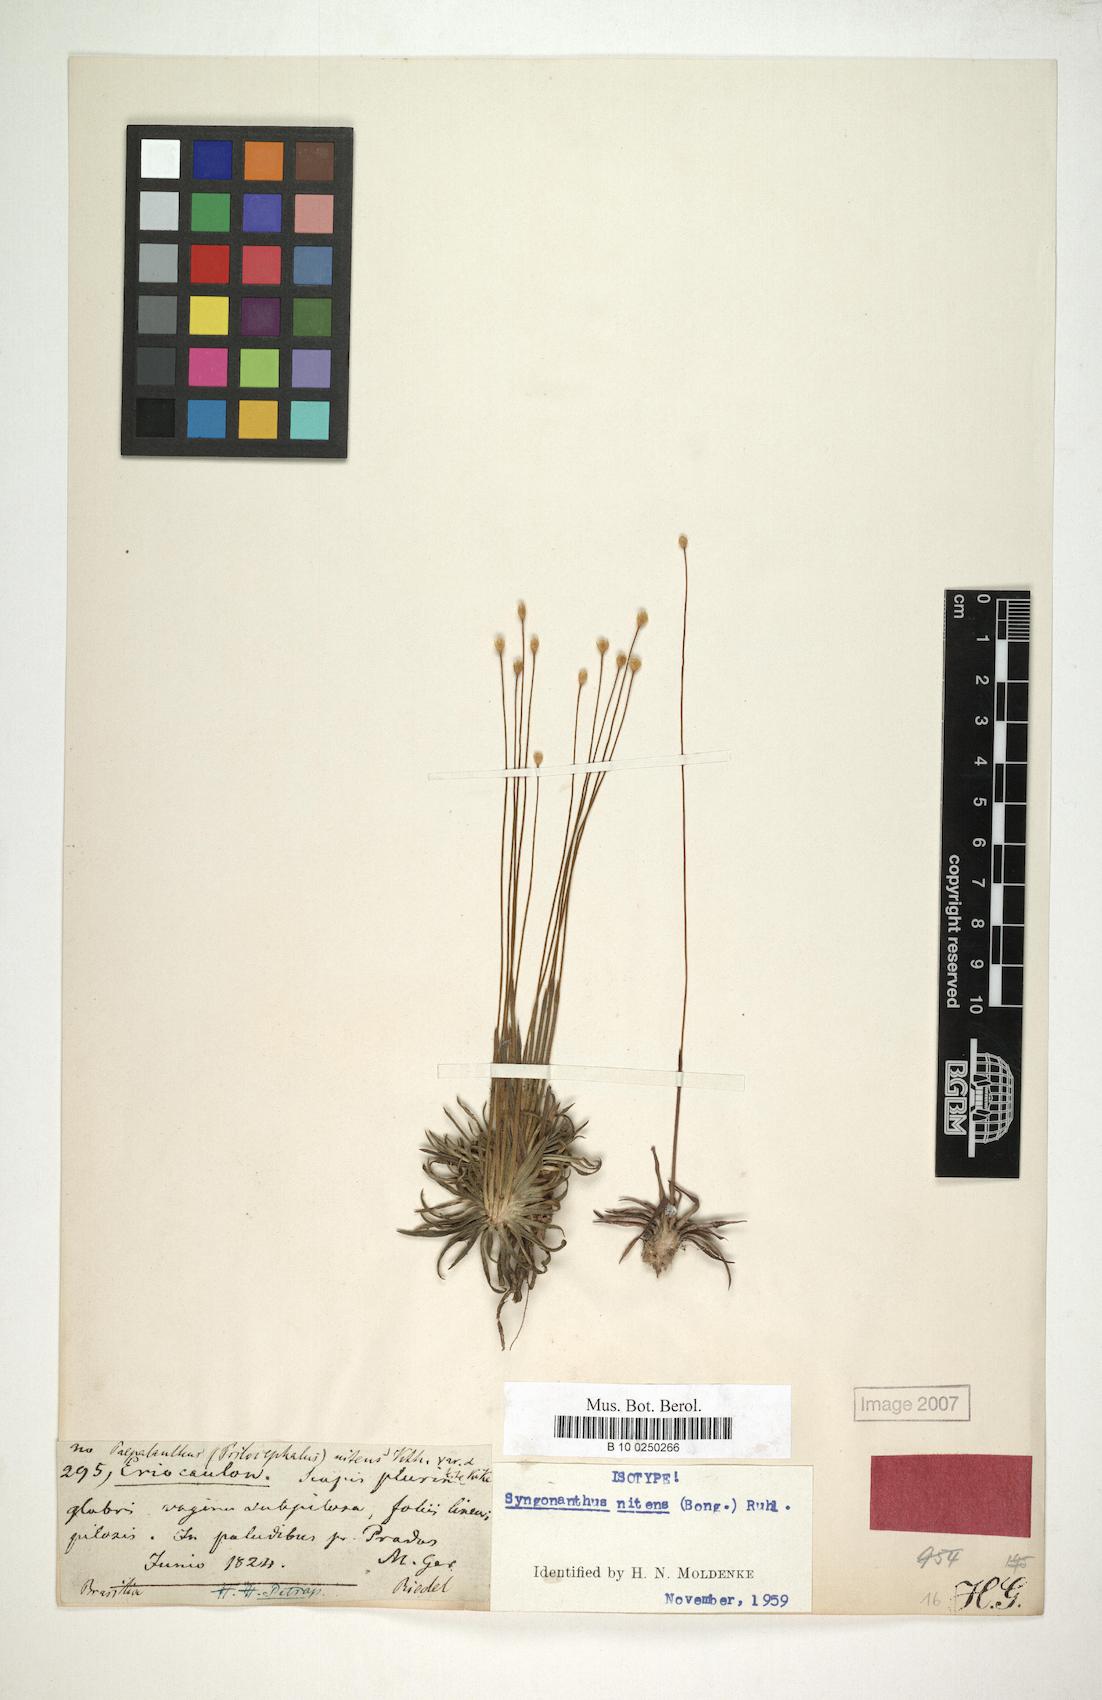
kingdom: Plantae
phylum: Tracheophyta
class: Liliopsida
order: Poales
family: Eriocaulaceae
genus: Syngonanthus
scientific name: Syngonanthus nitens
